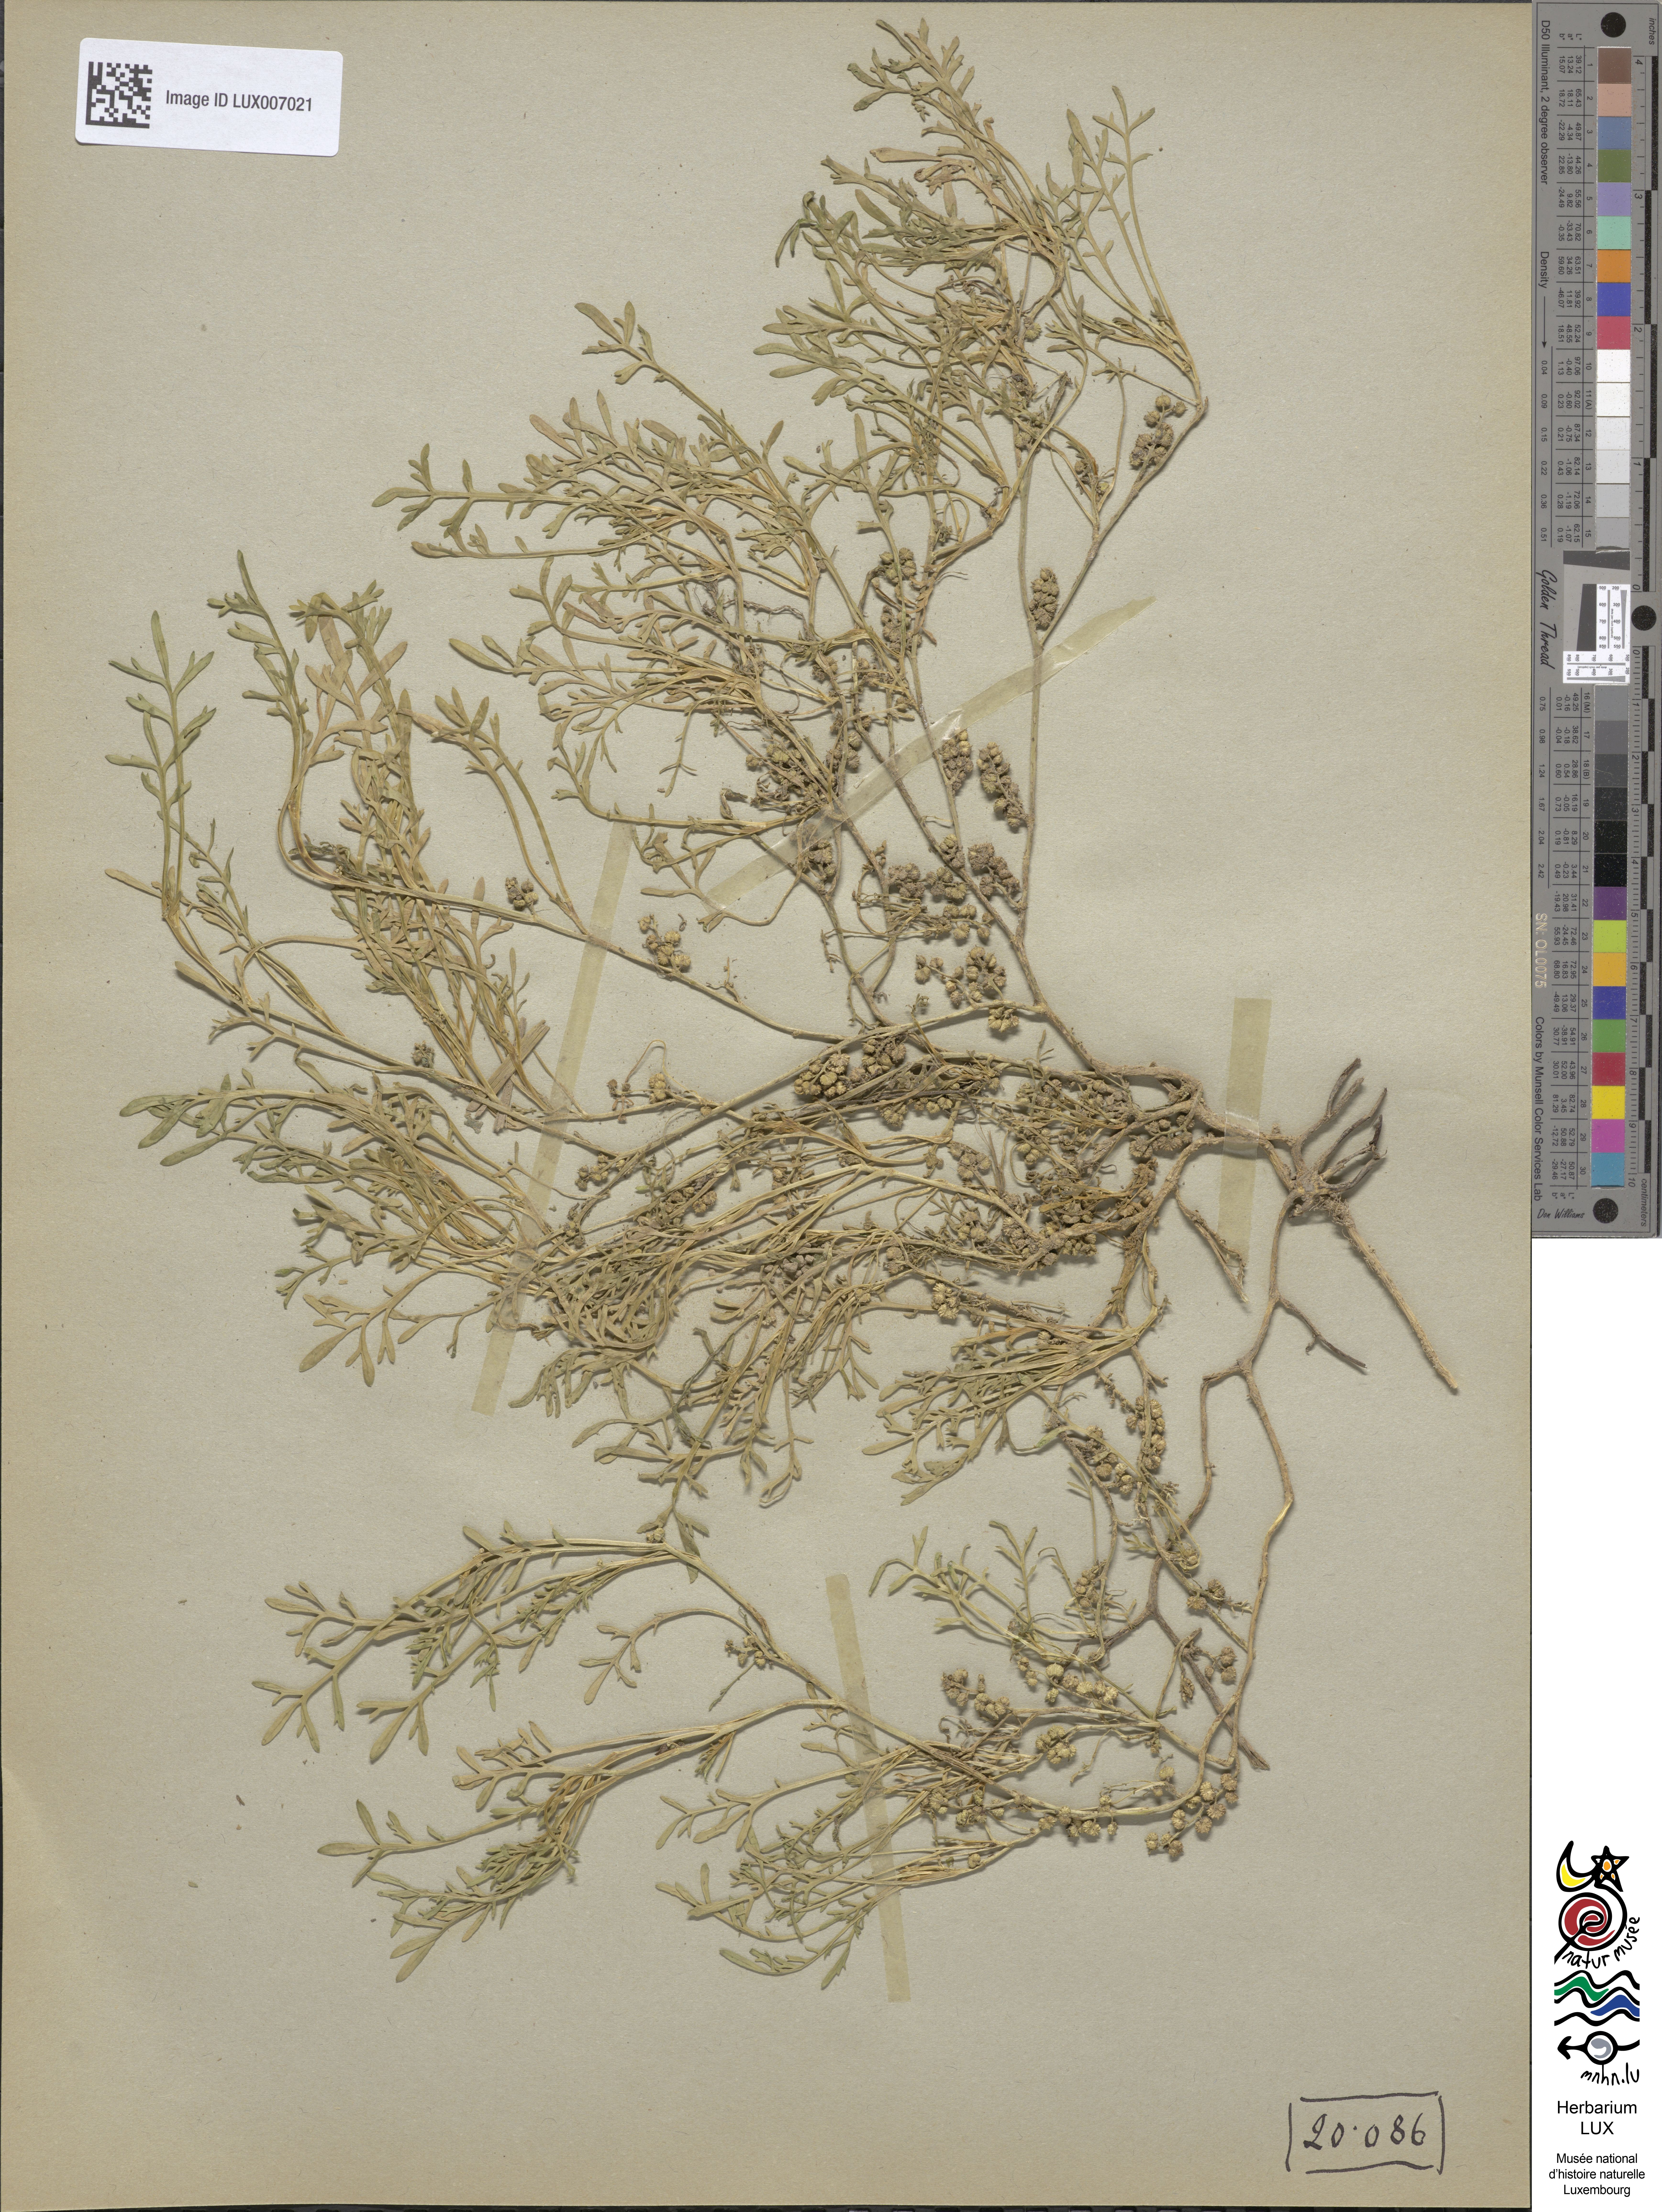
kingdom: Plantae
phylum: Tracheophyta
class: Magnoliopsida
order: Brassicales
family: Brassicaceae
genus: Lepidium
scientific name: Lepidium coronopus
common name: Greater swinecress
